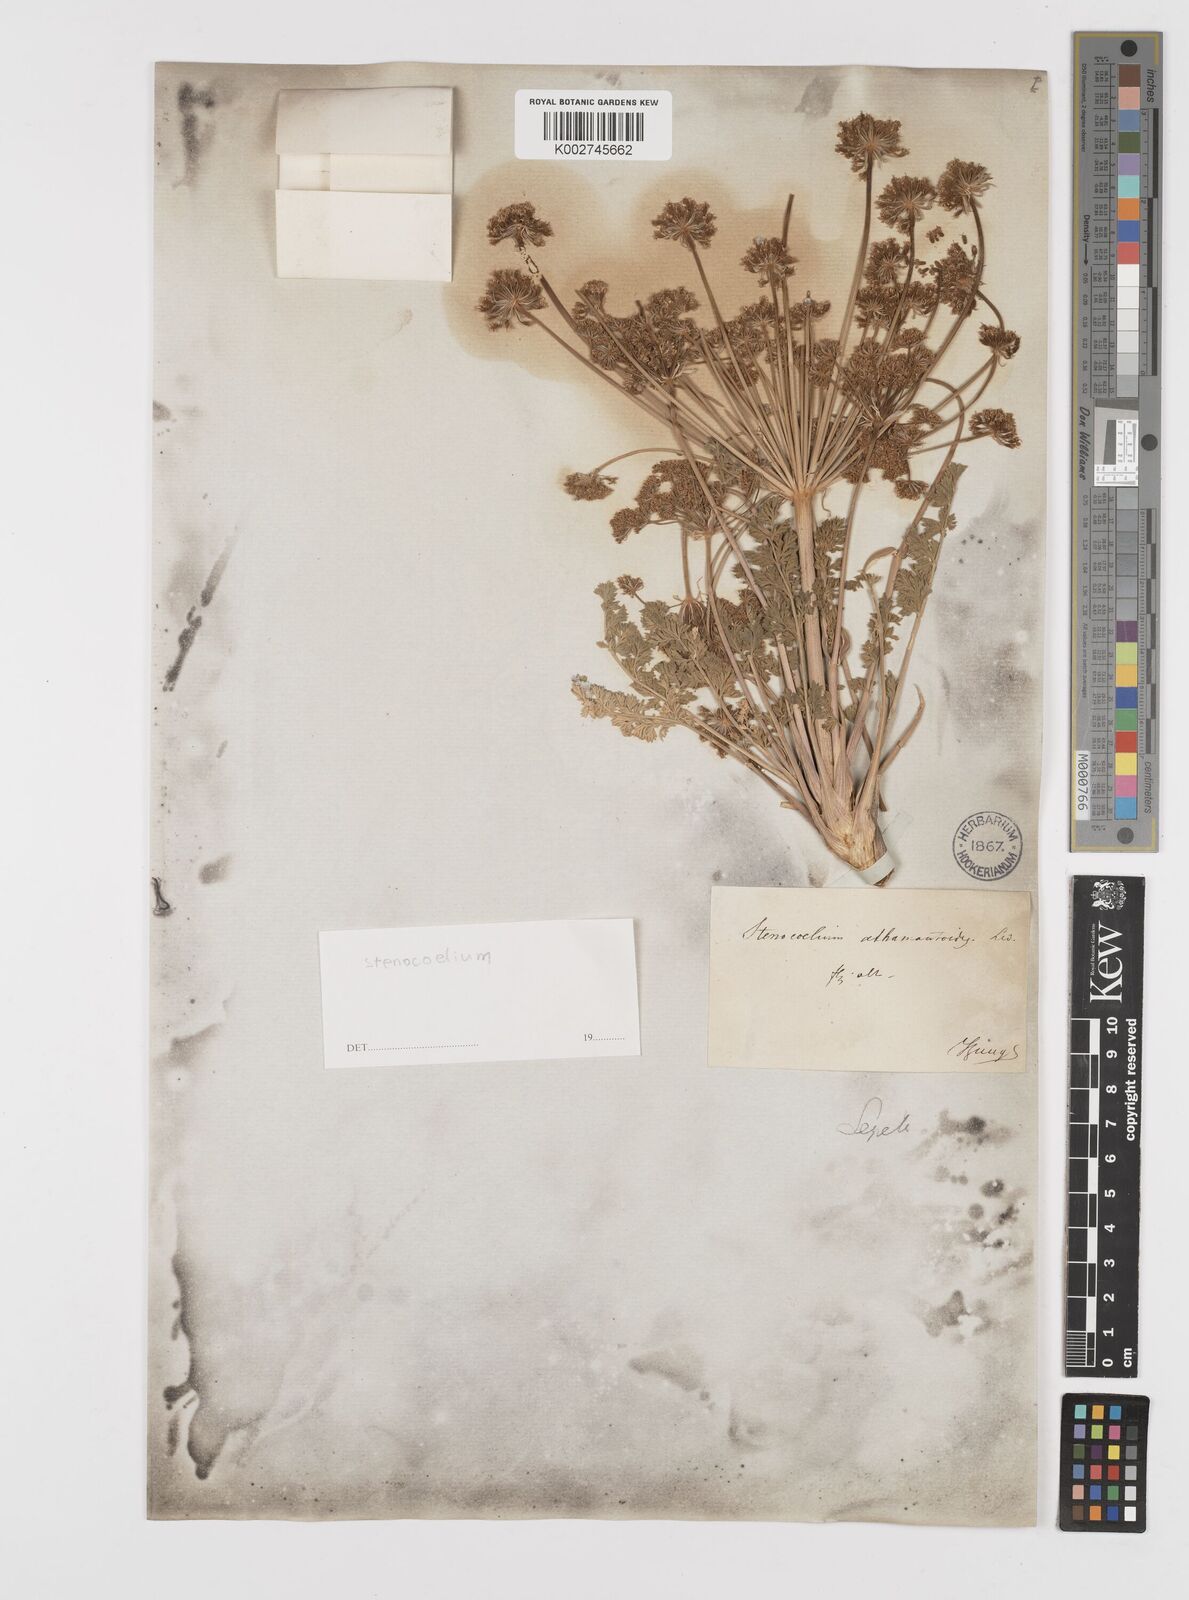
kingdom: Plantae
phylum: Tracheophyta
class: Magnoliopsida
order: Apiales
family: Apiaceae
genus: Stenocoelium
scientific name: Stenocoelium athamantoides
